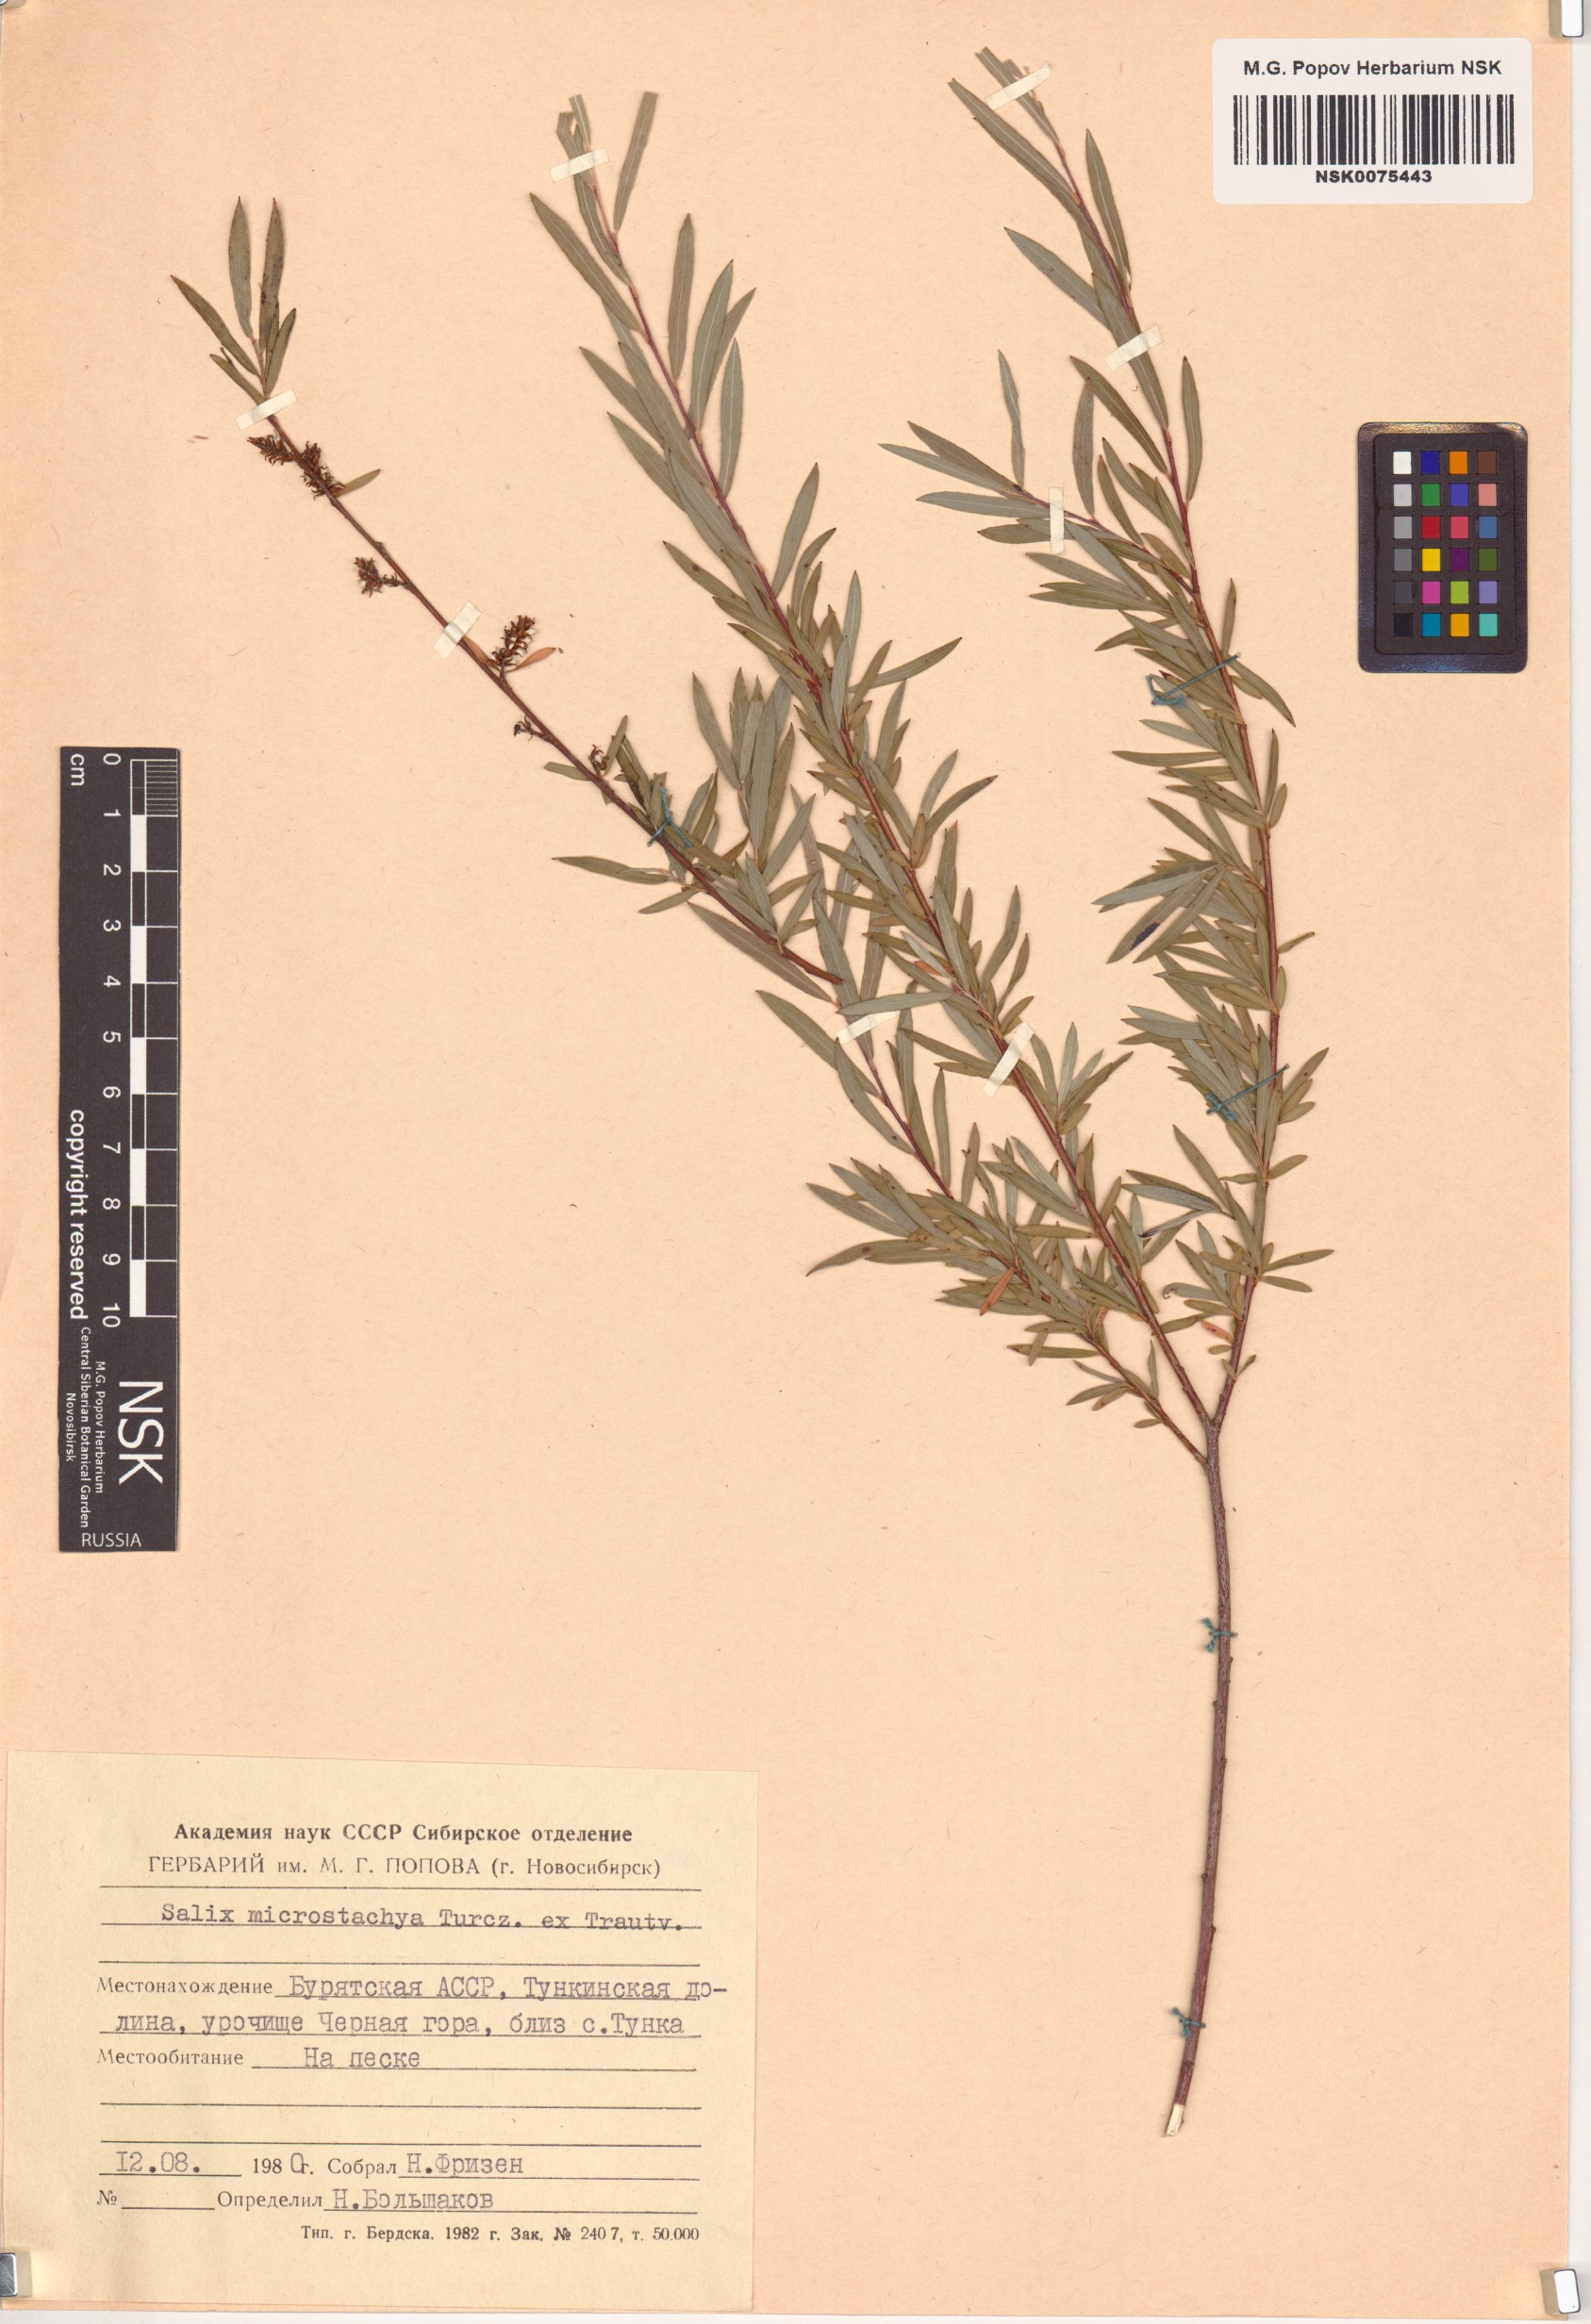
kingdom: Plantae
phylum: Tracheophyta
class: Magnoliopsida
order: Malpighiales
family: Salicaceae
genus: Salix
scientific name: Salix microstachya
